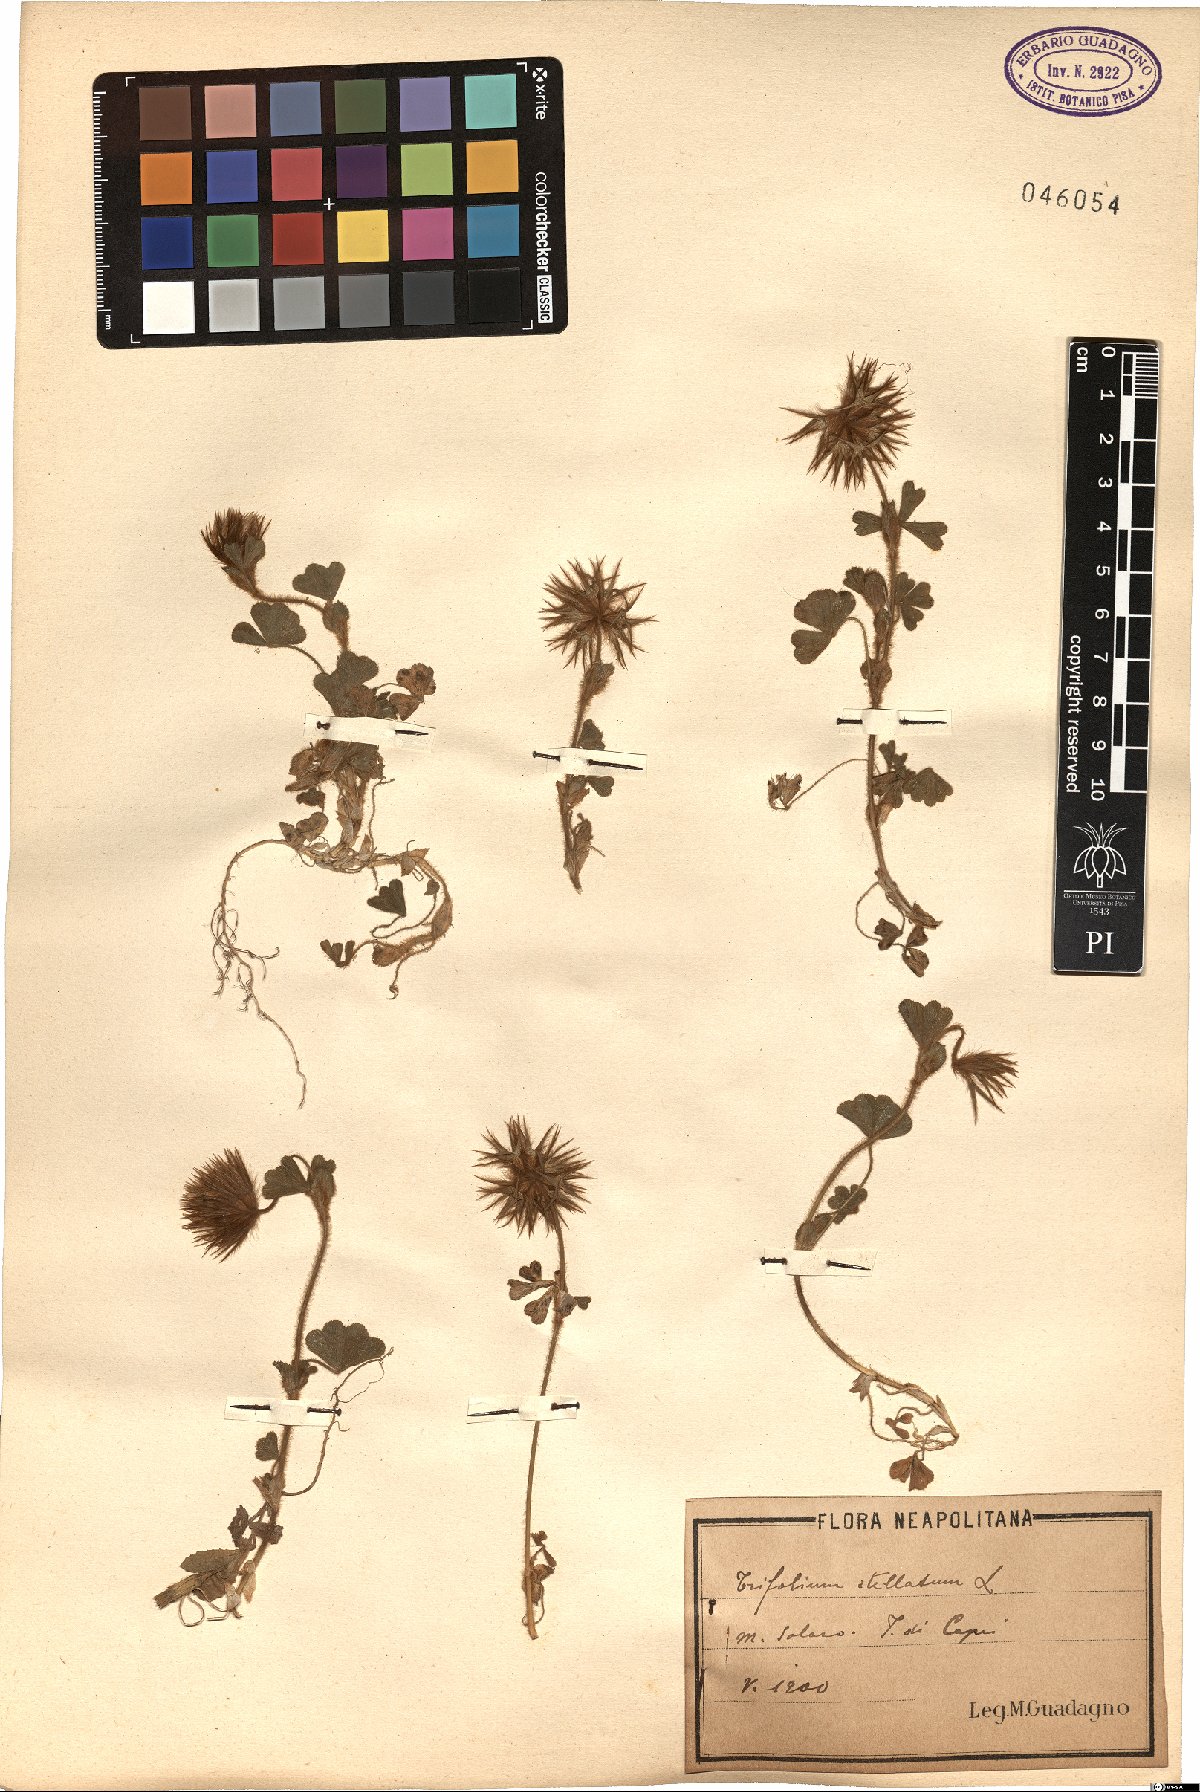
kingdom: Plantae
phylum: Tracheophyta
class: Magnoliopsida
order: Fabales
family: Fabaceae
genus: Trifolium
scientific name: Trifolium stellatum
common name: Starry clover
